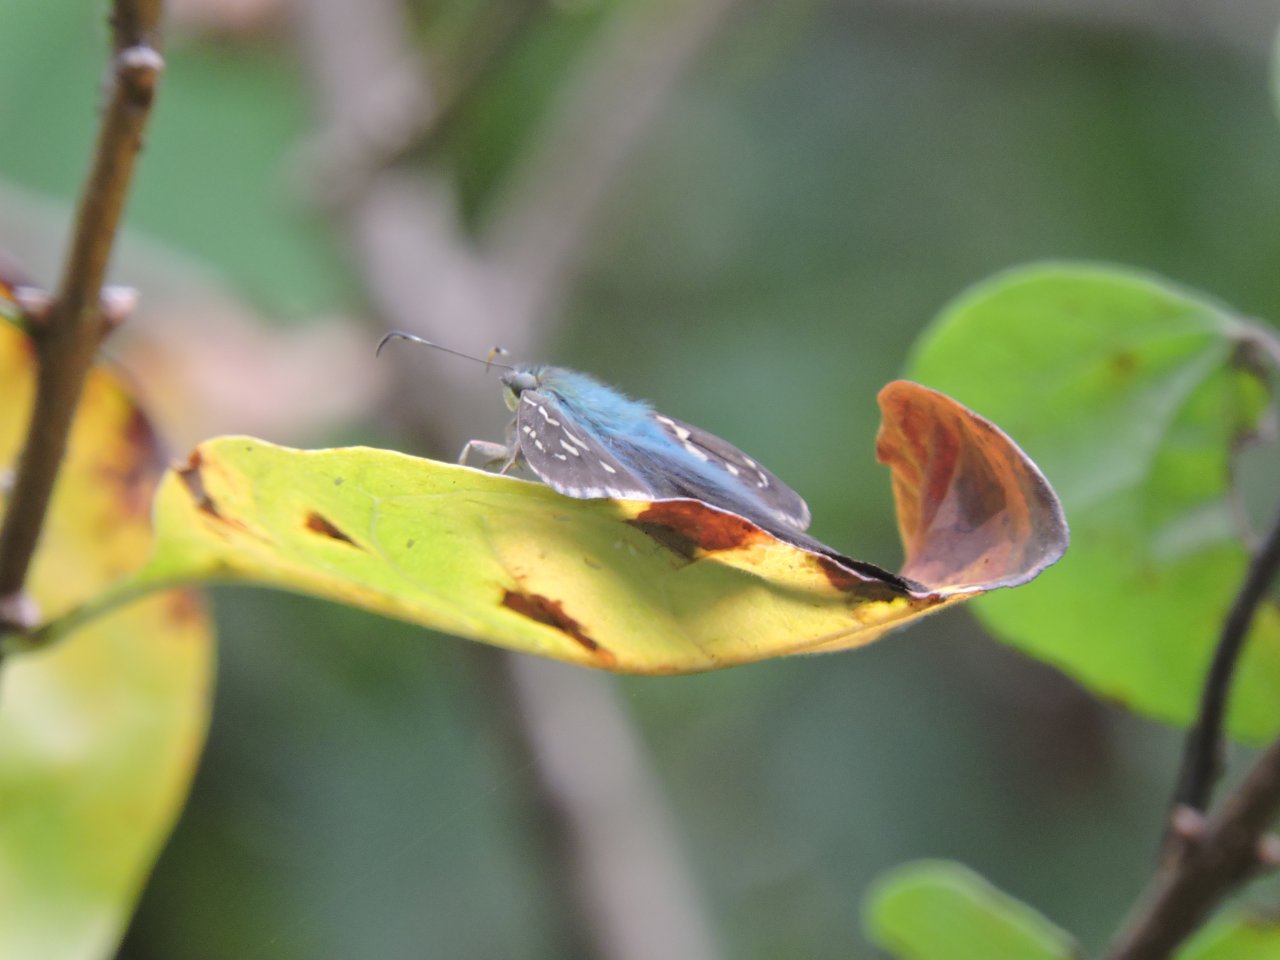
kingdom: Animalia
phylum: Arthropoda
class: Insecta
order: Lepidoptera
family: Hesperiidae
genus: Urbanus
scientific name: Urbanus proteus
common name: Long-tailed Skipper
